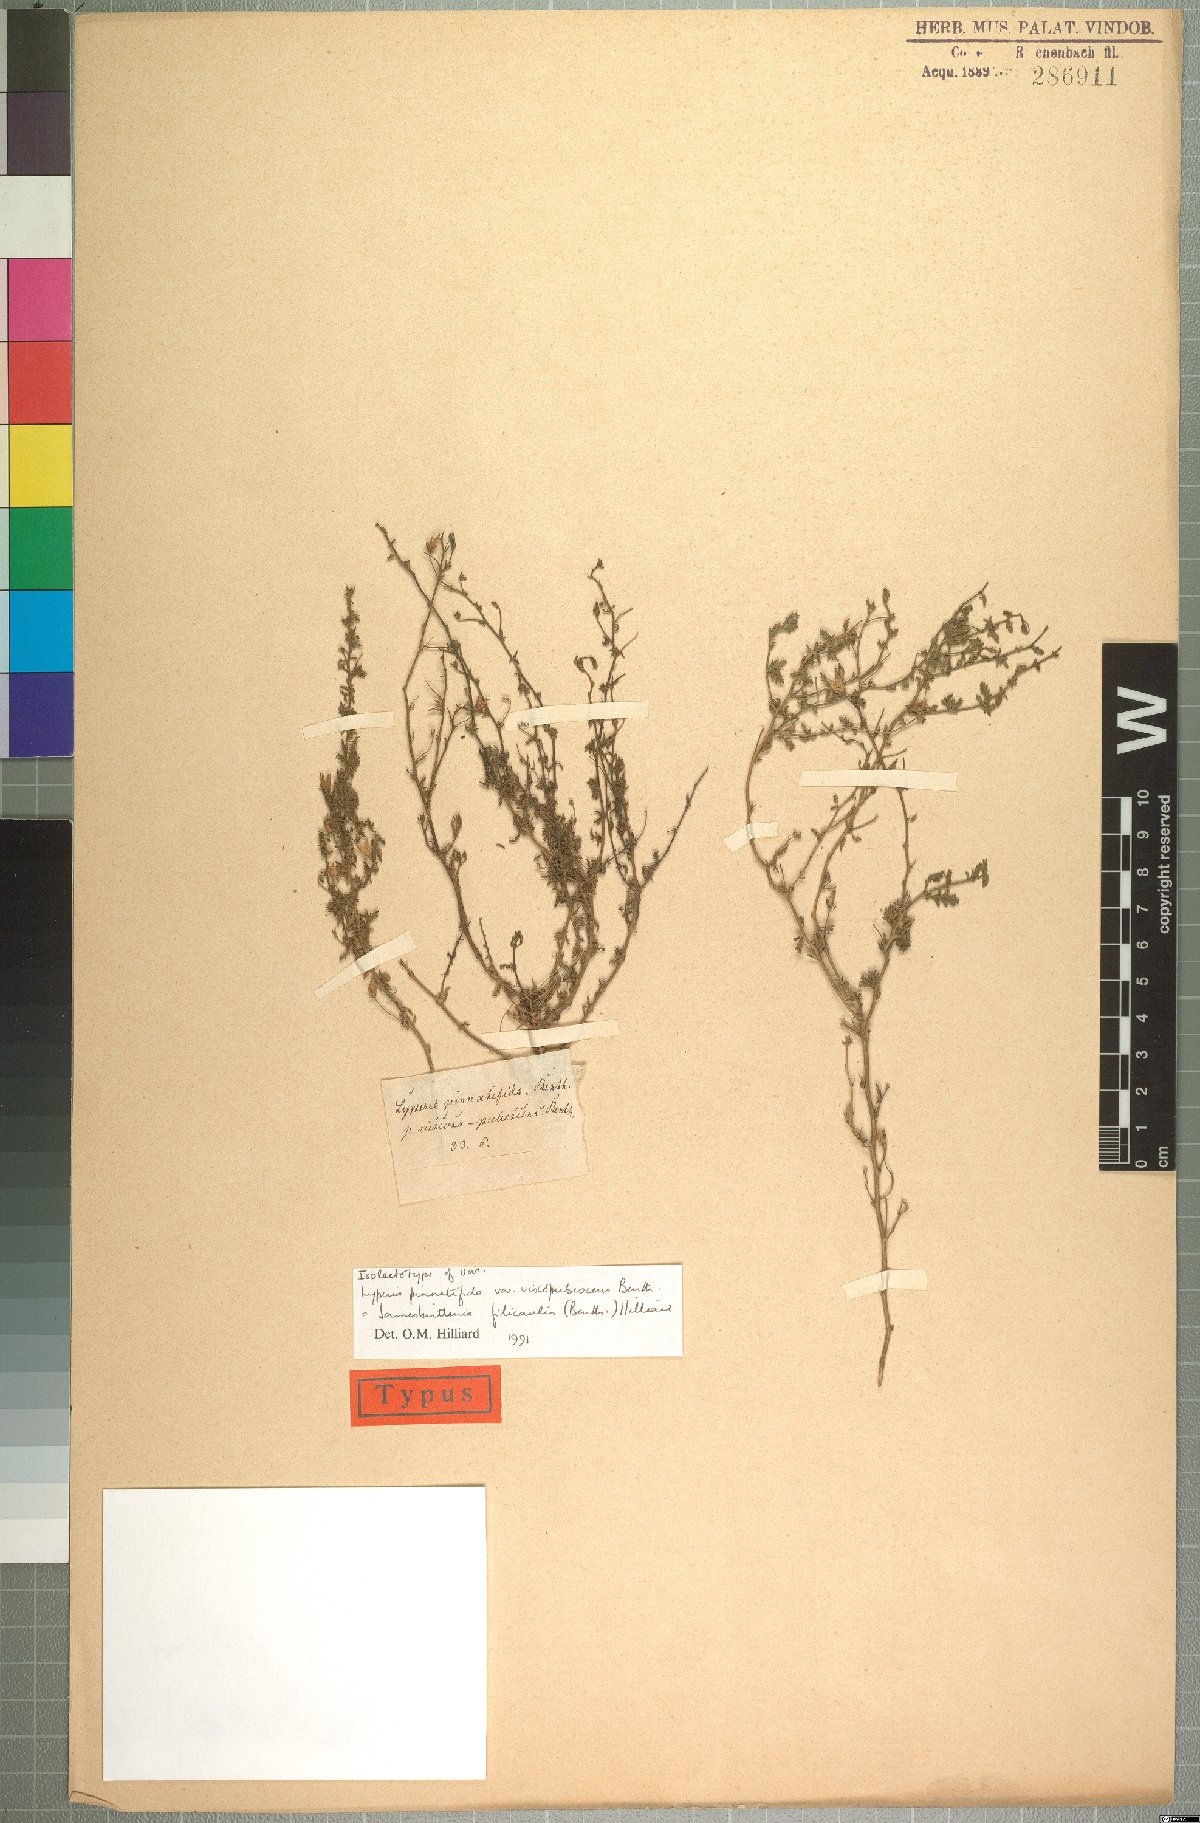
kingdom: Plantae
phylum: Tracheophyta
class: Magnoliopsida
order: Lamiales
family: Scrophulariaceae
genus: Jamesbrittenia
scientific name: Jamesbrittenia filicaulis
